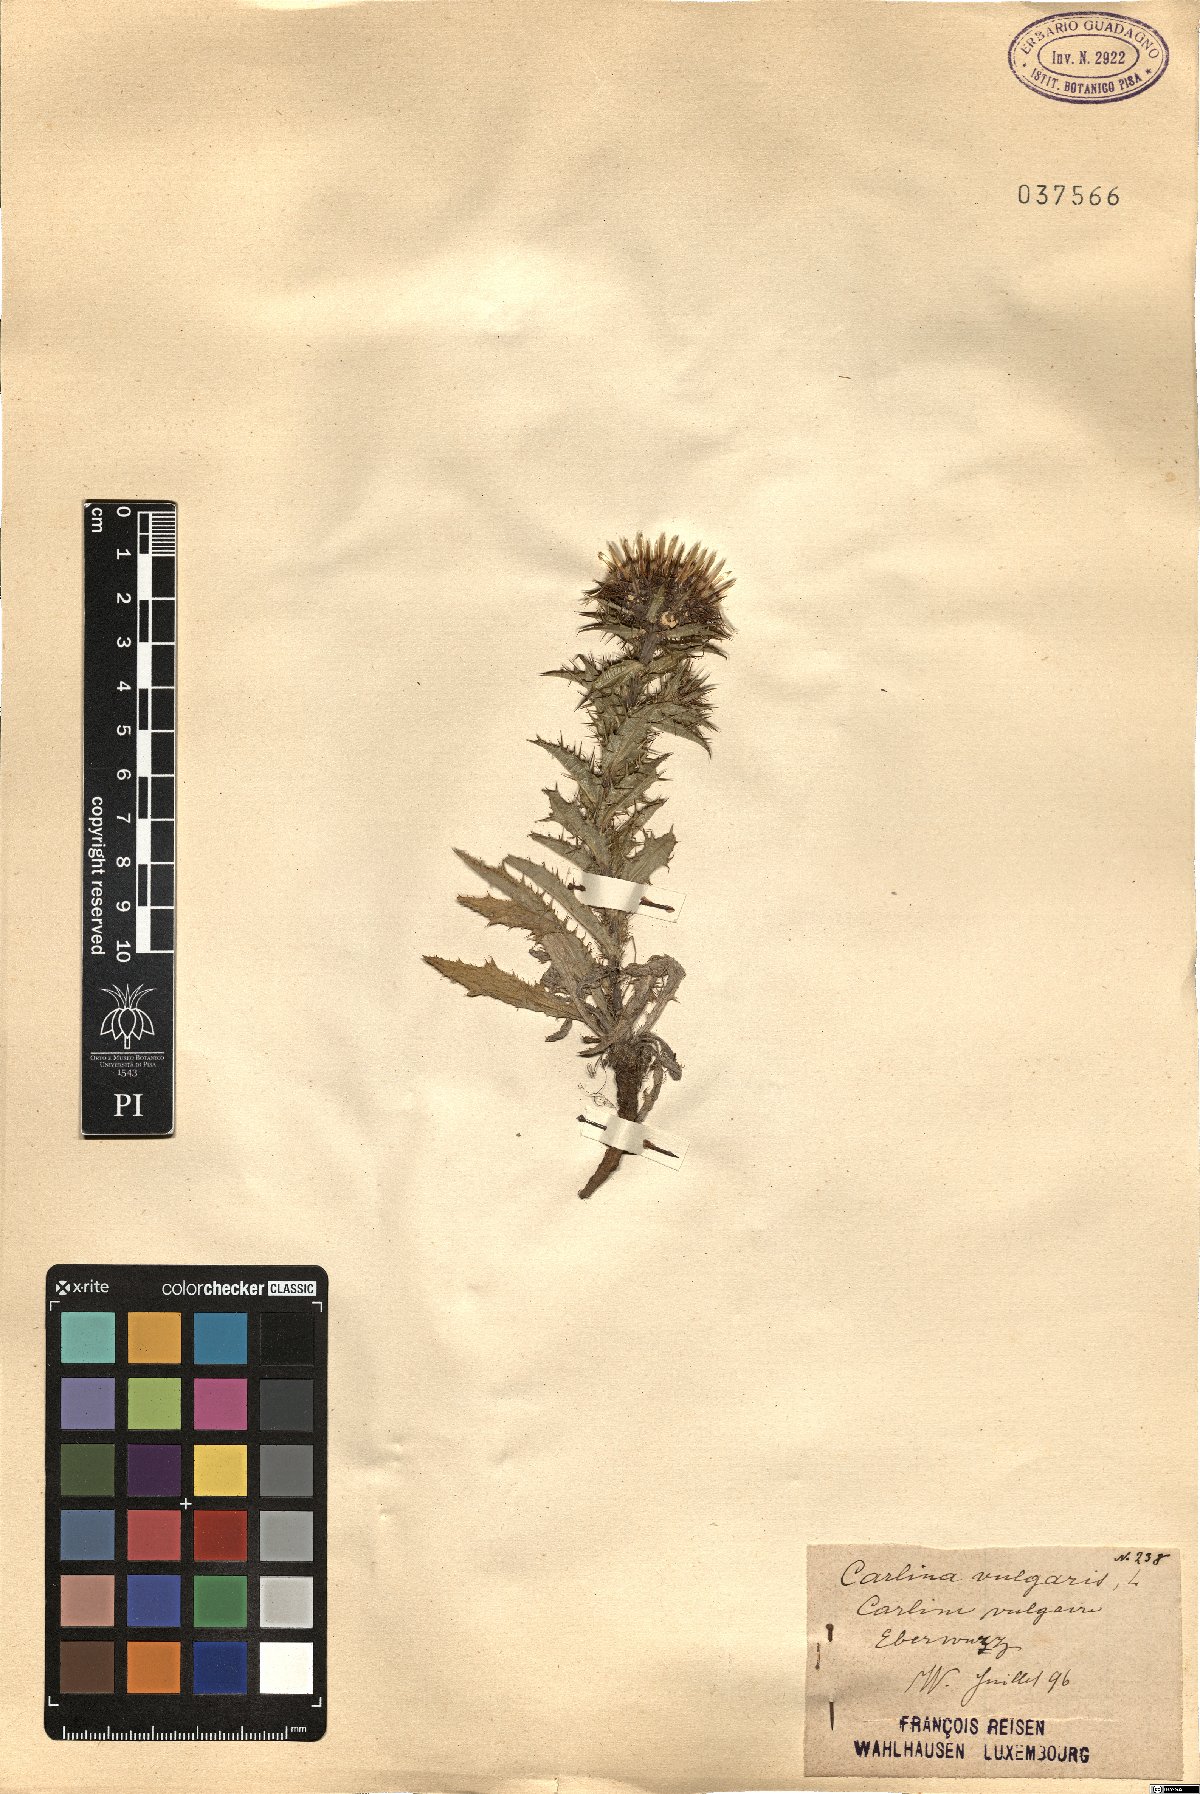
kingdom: Plantae
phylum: Tracheophyta
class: Magnoliopsida
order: Asterales
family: Asteraceae
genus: Carlina
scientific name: Carlina vulgaris
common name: Carline thistle
